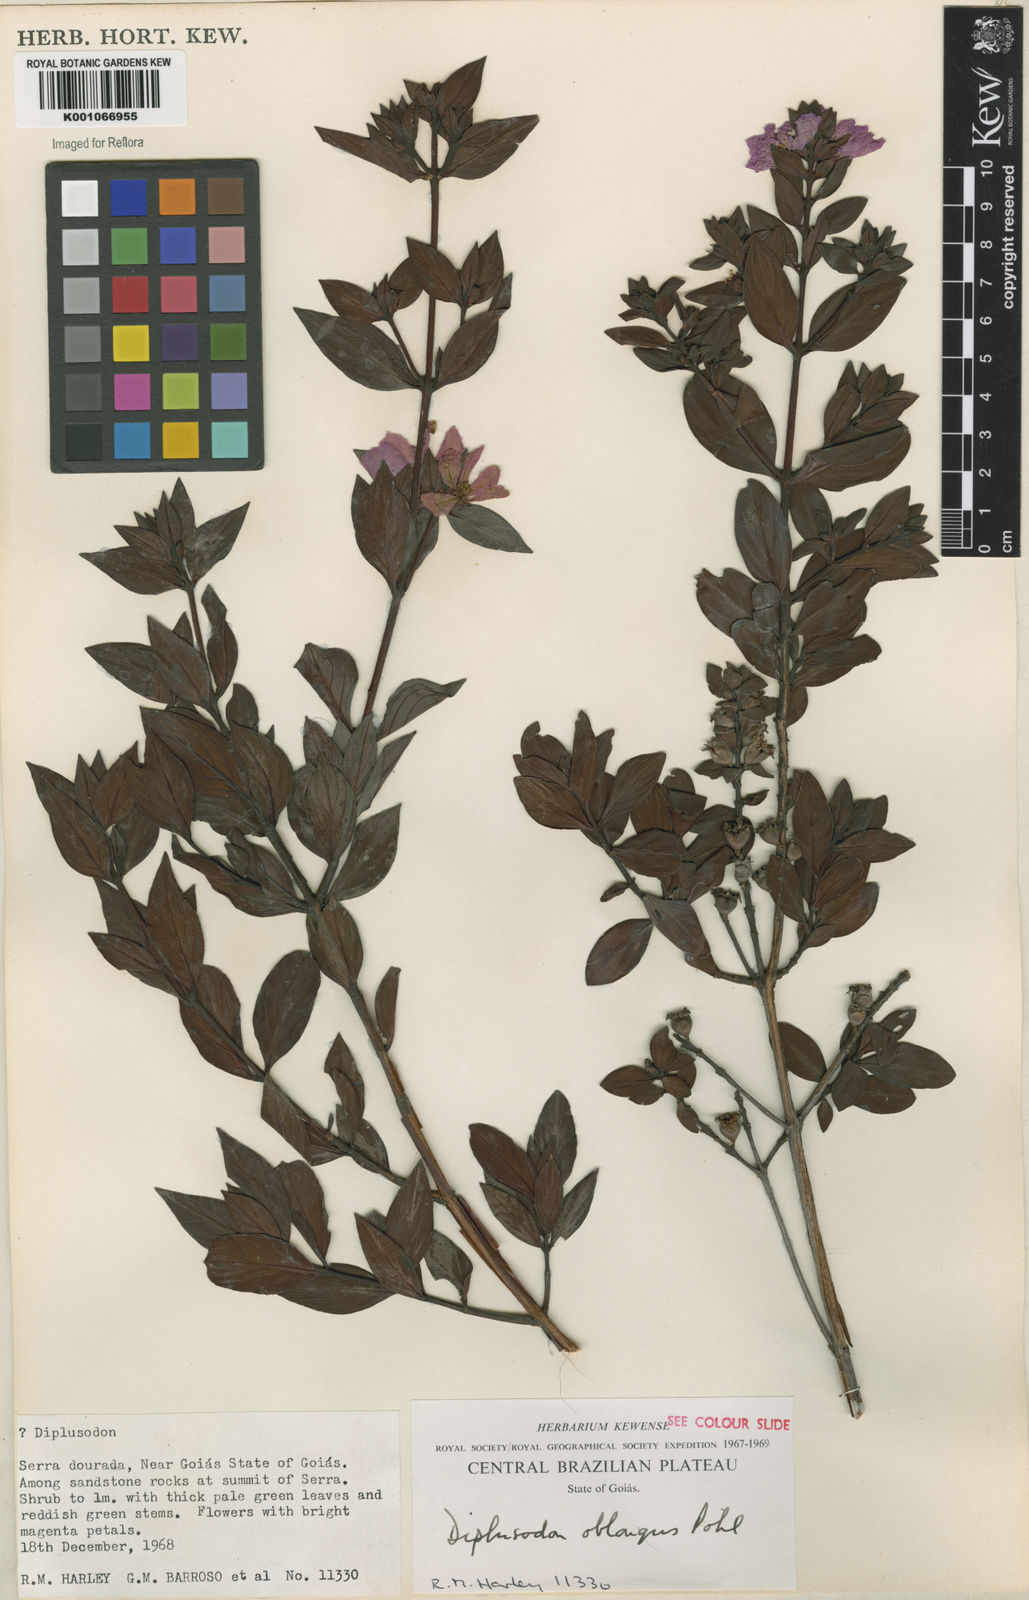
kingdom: Plantae
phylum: Tracheophyta
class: Magnoliopsida
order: Myrtales
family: Lythraceae
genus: Diplusodon
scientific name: Diplusodon oblongus
